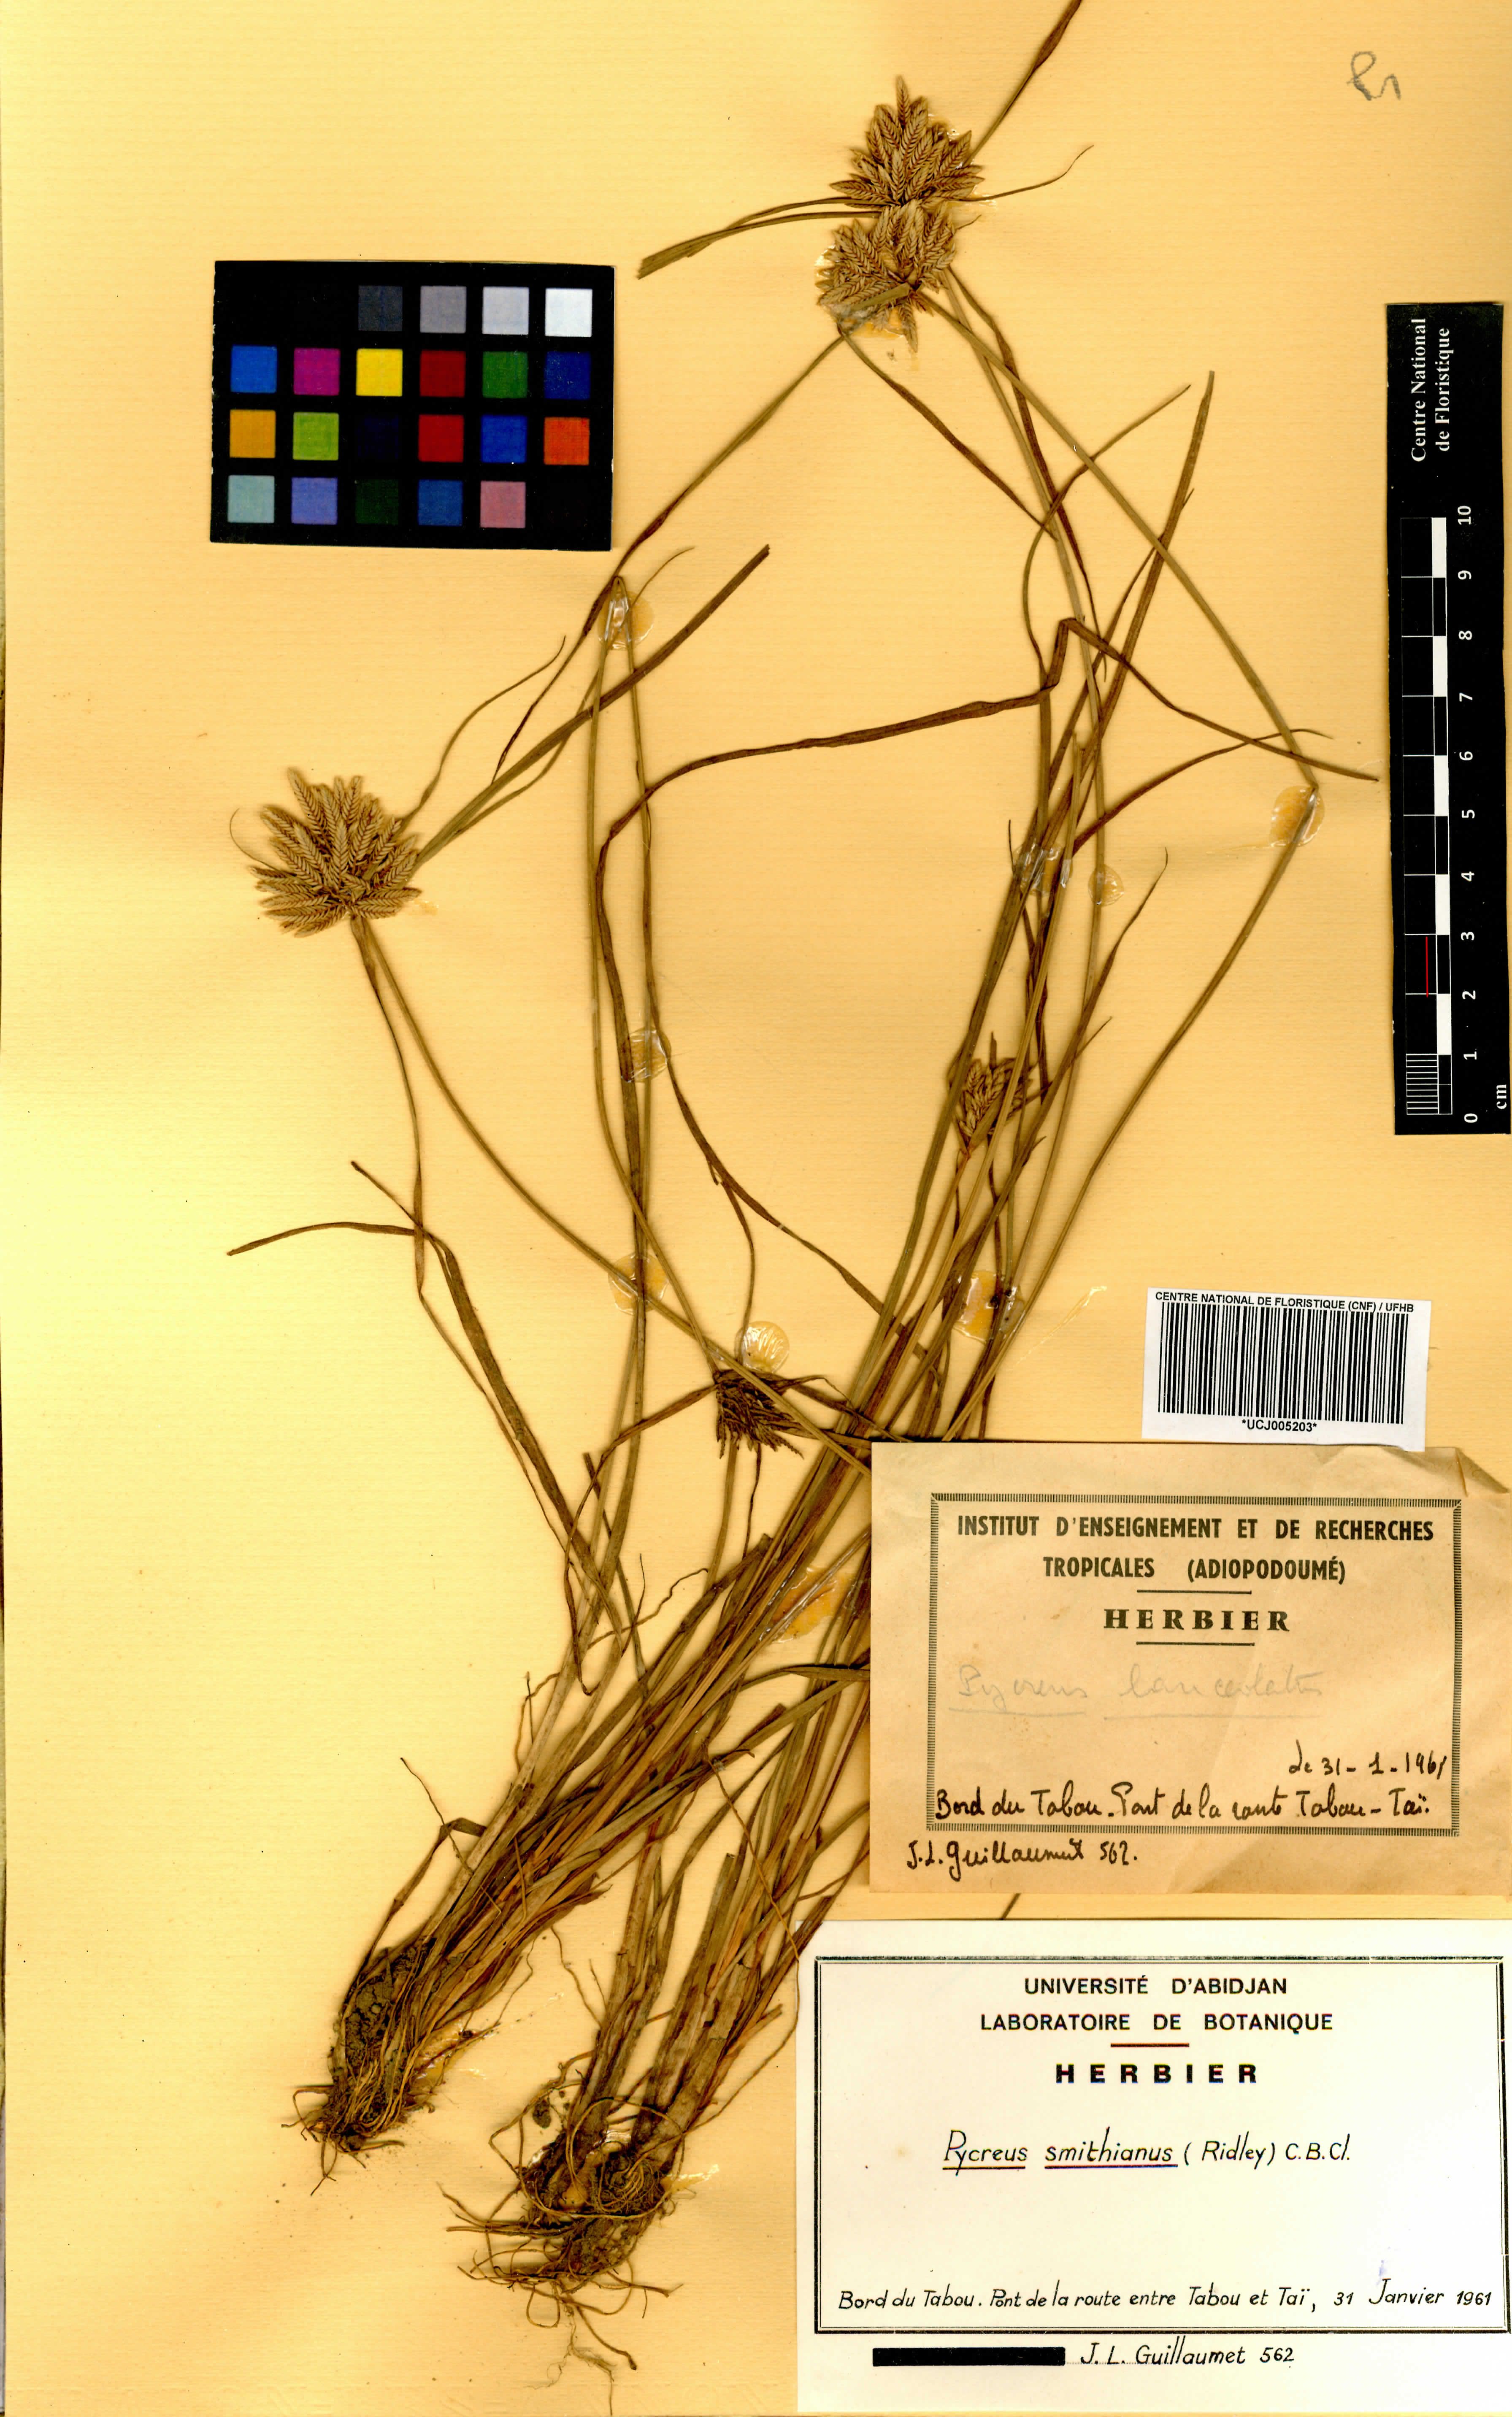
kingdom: Plantae
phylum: Tracheophyta
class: Liliopsida
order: Poales
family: Cyperaceae
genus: Cyperus
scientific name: Cyperus smithianus
